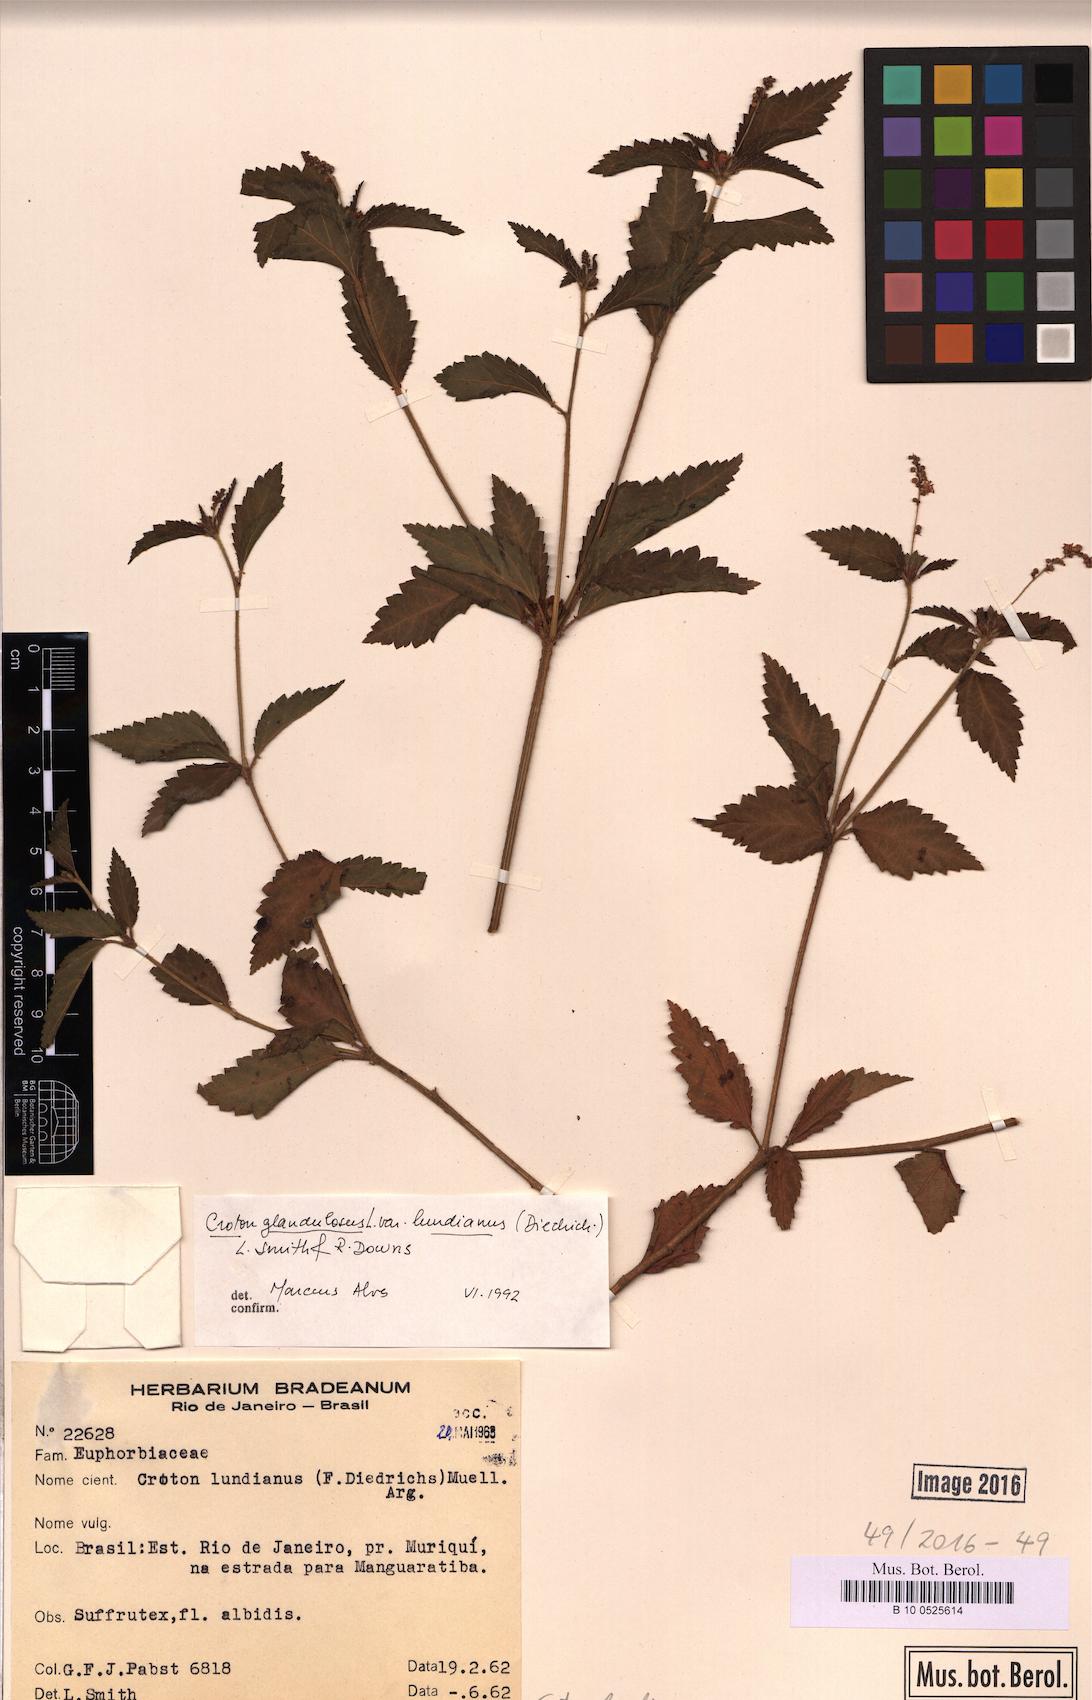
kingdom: Plantae
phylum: Tracheophyta
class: Magnoliopsida
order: Malpighiales
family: Euphorbiaceae
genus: Croton
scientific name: Croton lundianus
